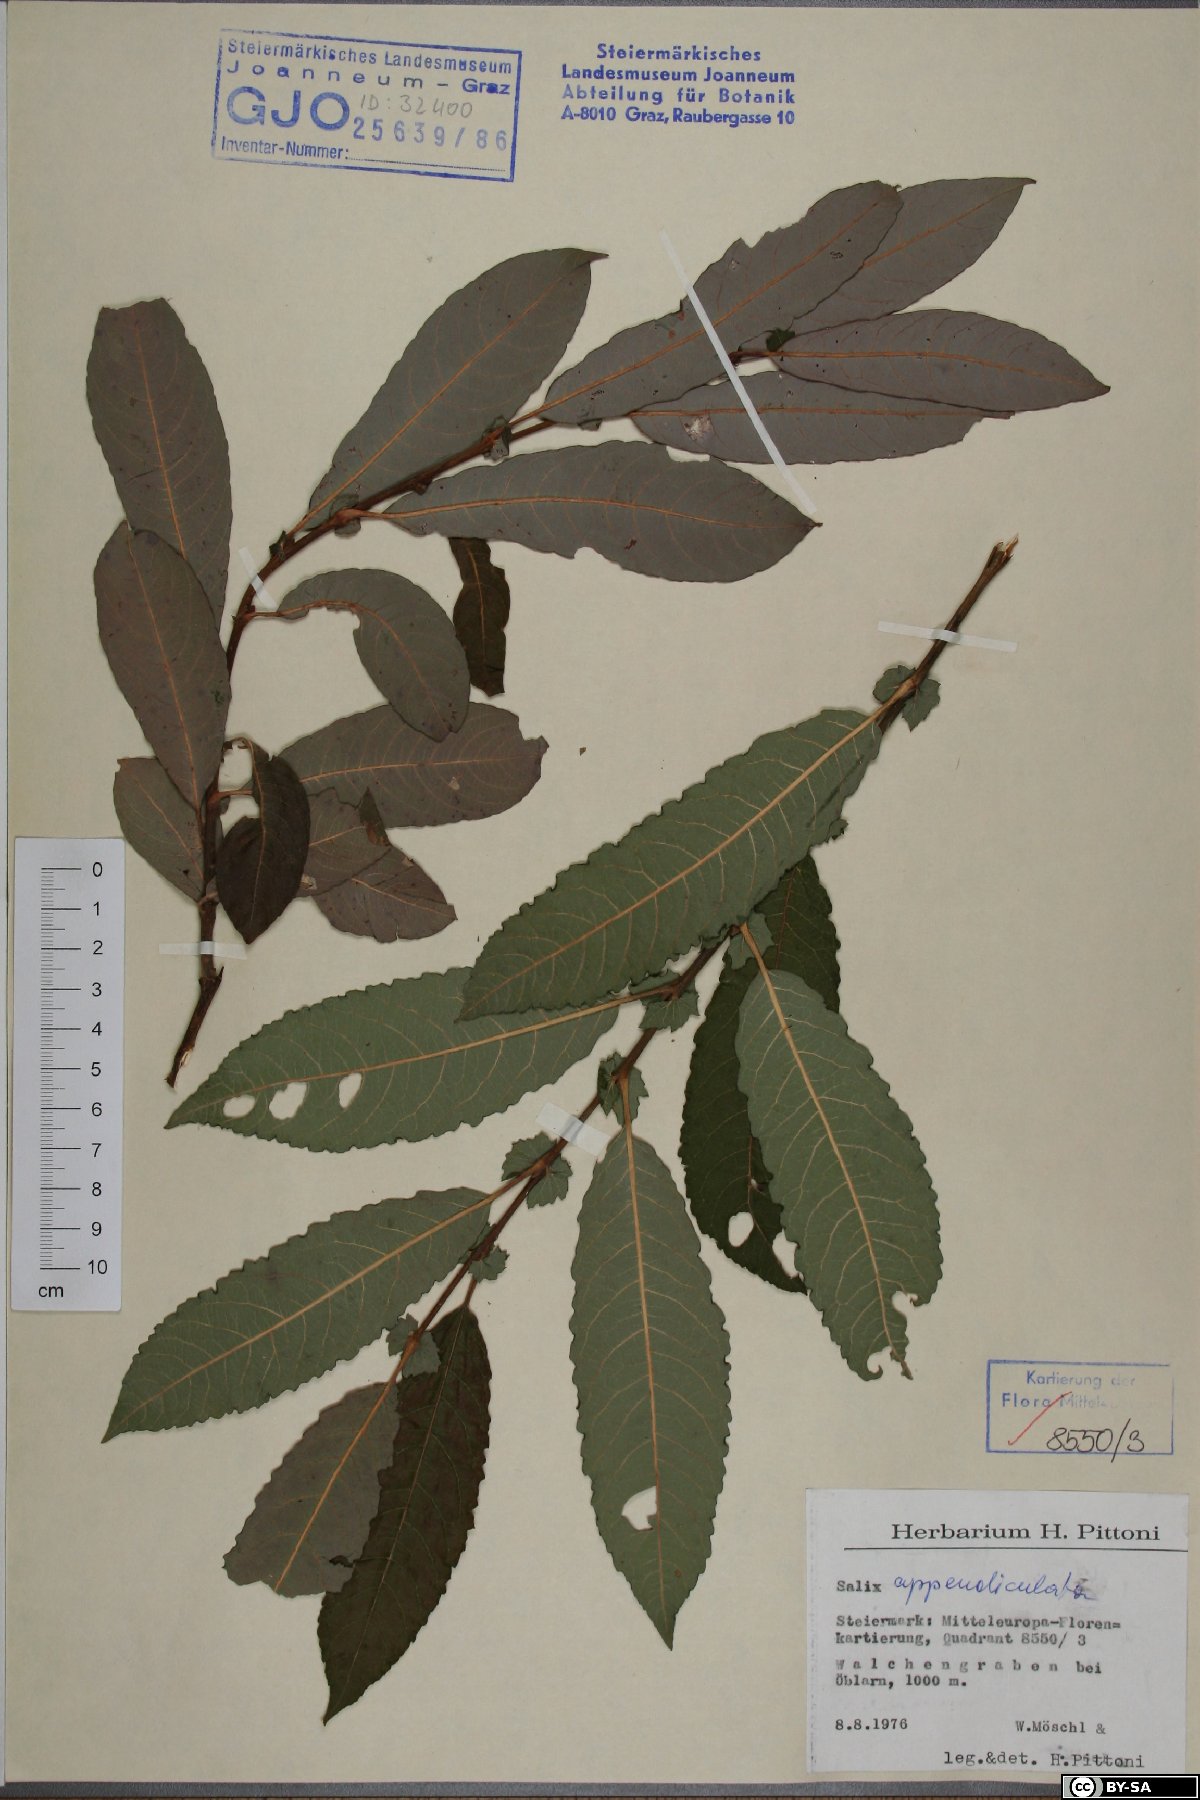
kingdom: Plantae
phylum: Tracheophyta
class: Magnoliopsida
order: Malpighiales
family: Salicaceae
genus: Salix
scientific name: Salix appendiculata
